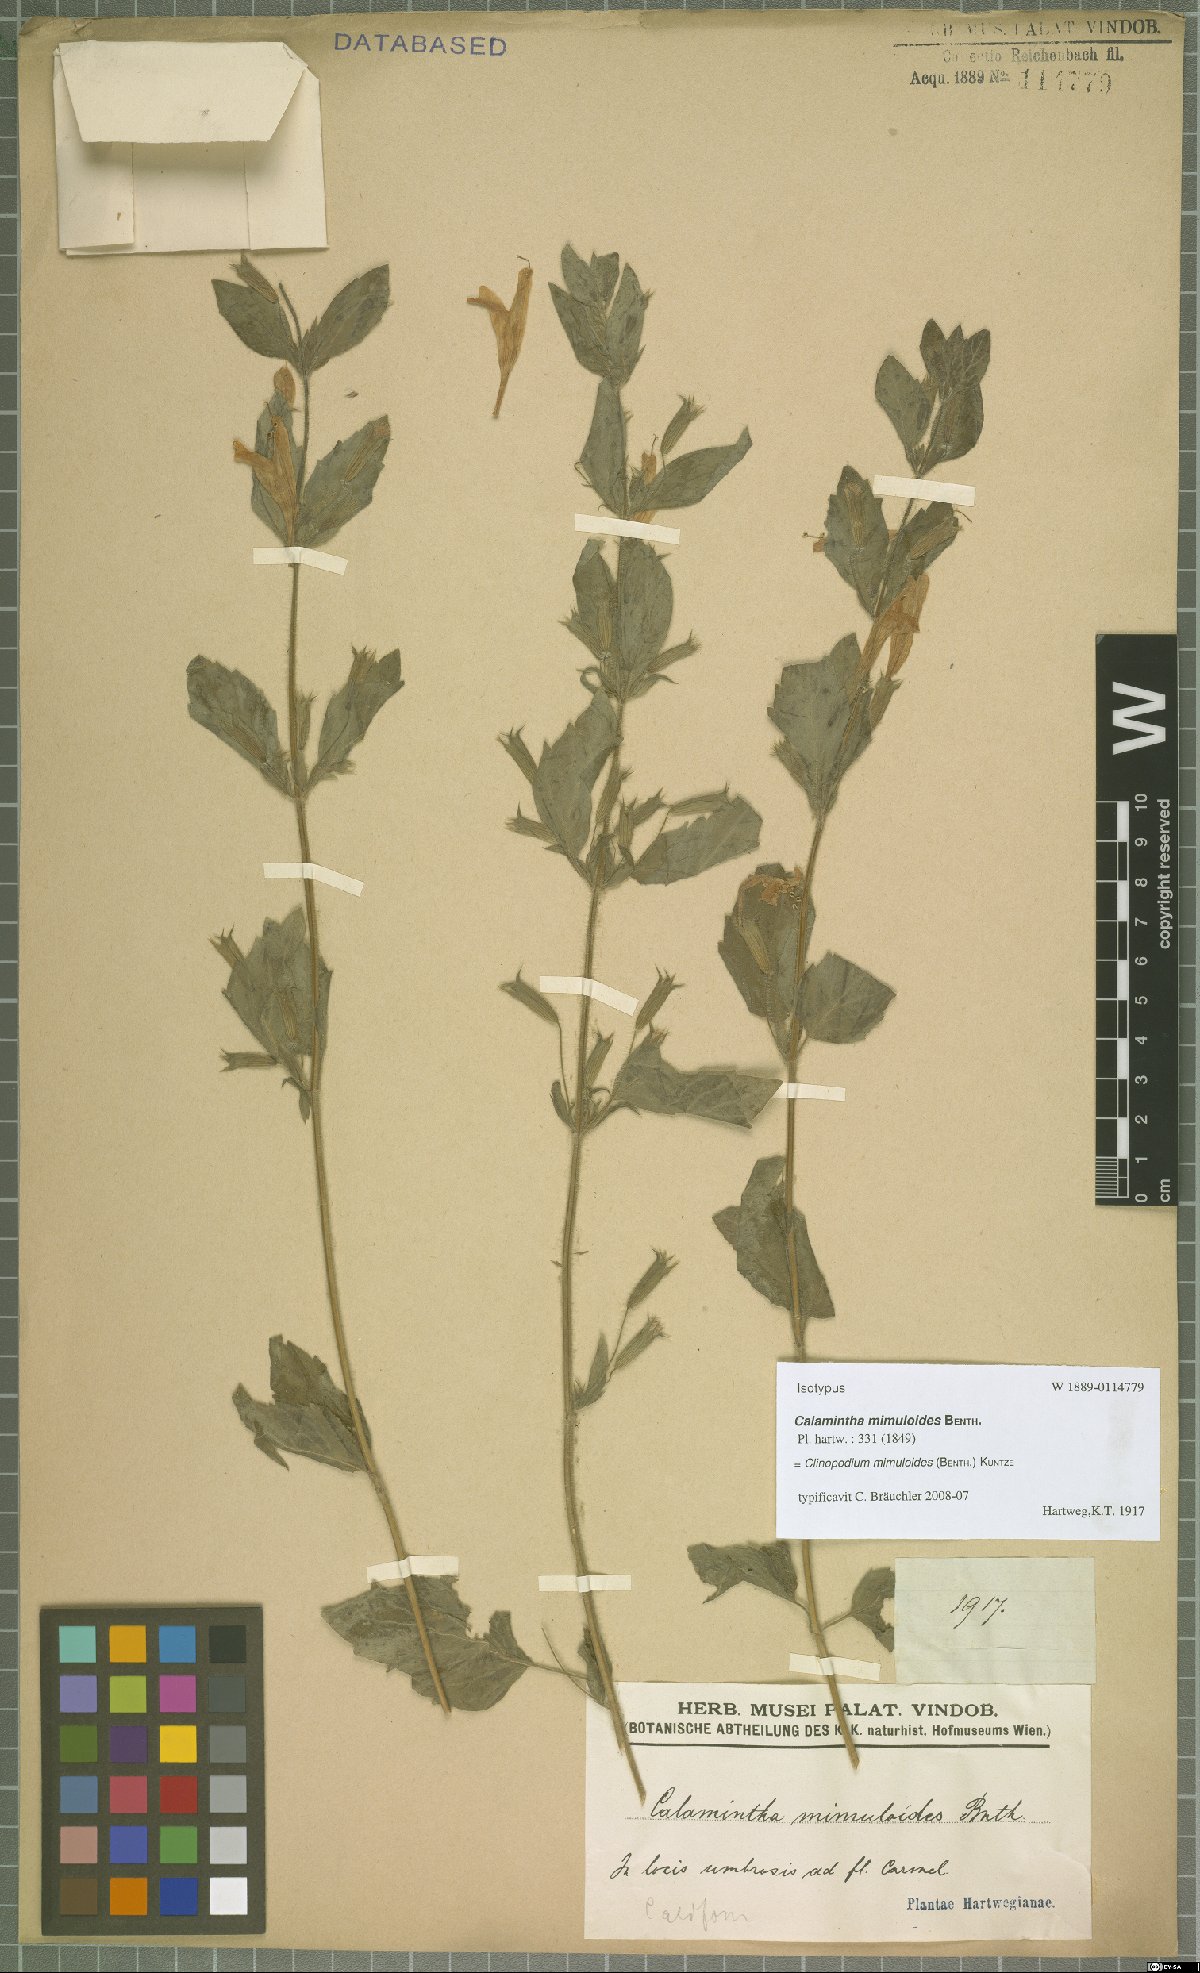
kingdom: Plantae
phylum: Tracheophyta
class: Magnoliopsida
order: Lamiales
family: Lamiaceae
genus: Clinopodium
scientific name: Clinopodium mimuloides
